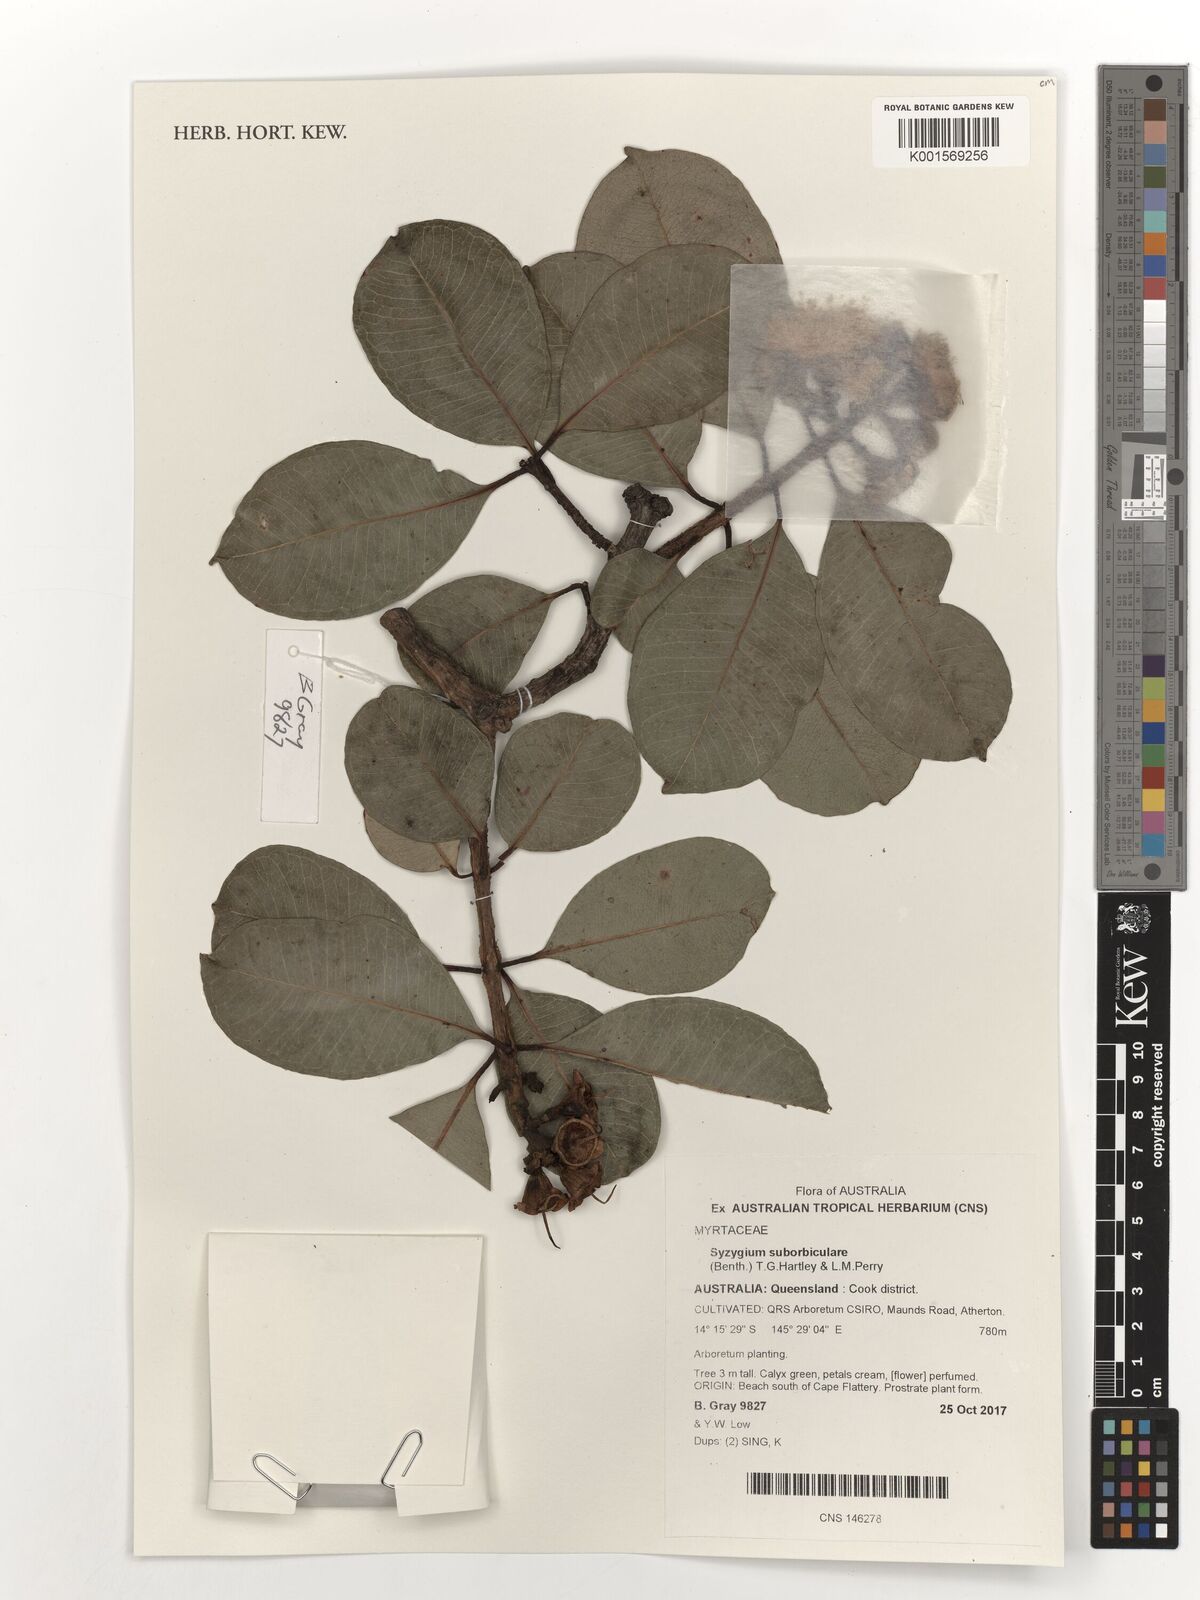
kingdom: Plantae
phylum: Tracheophyta
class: Magnoliopsida
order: Myrtales
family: Myrtaceae
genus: Syzygium
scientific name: Syzygium suborbiculare
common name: Red bush apple
